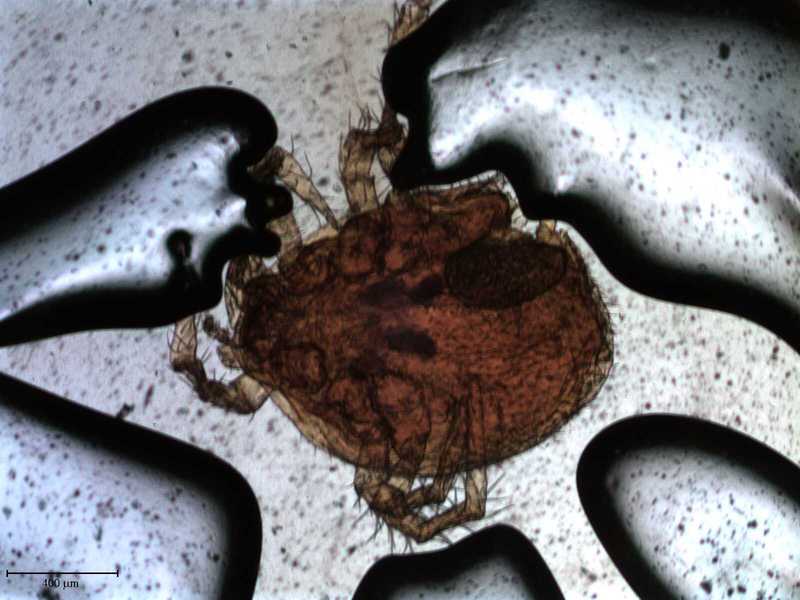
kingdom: Animalia
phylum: Arthropoda
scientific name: Arthropoda
